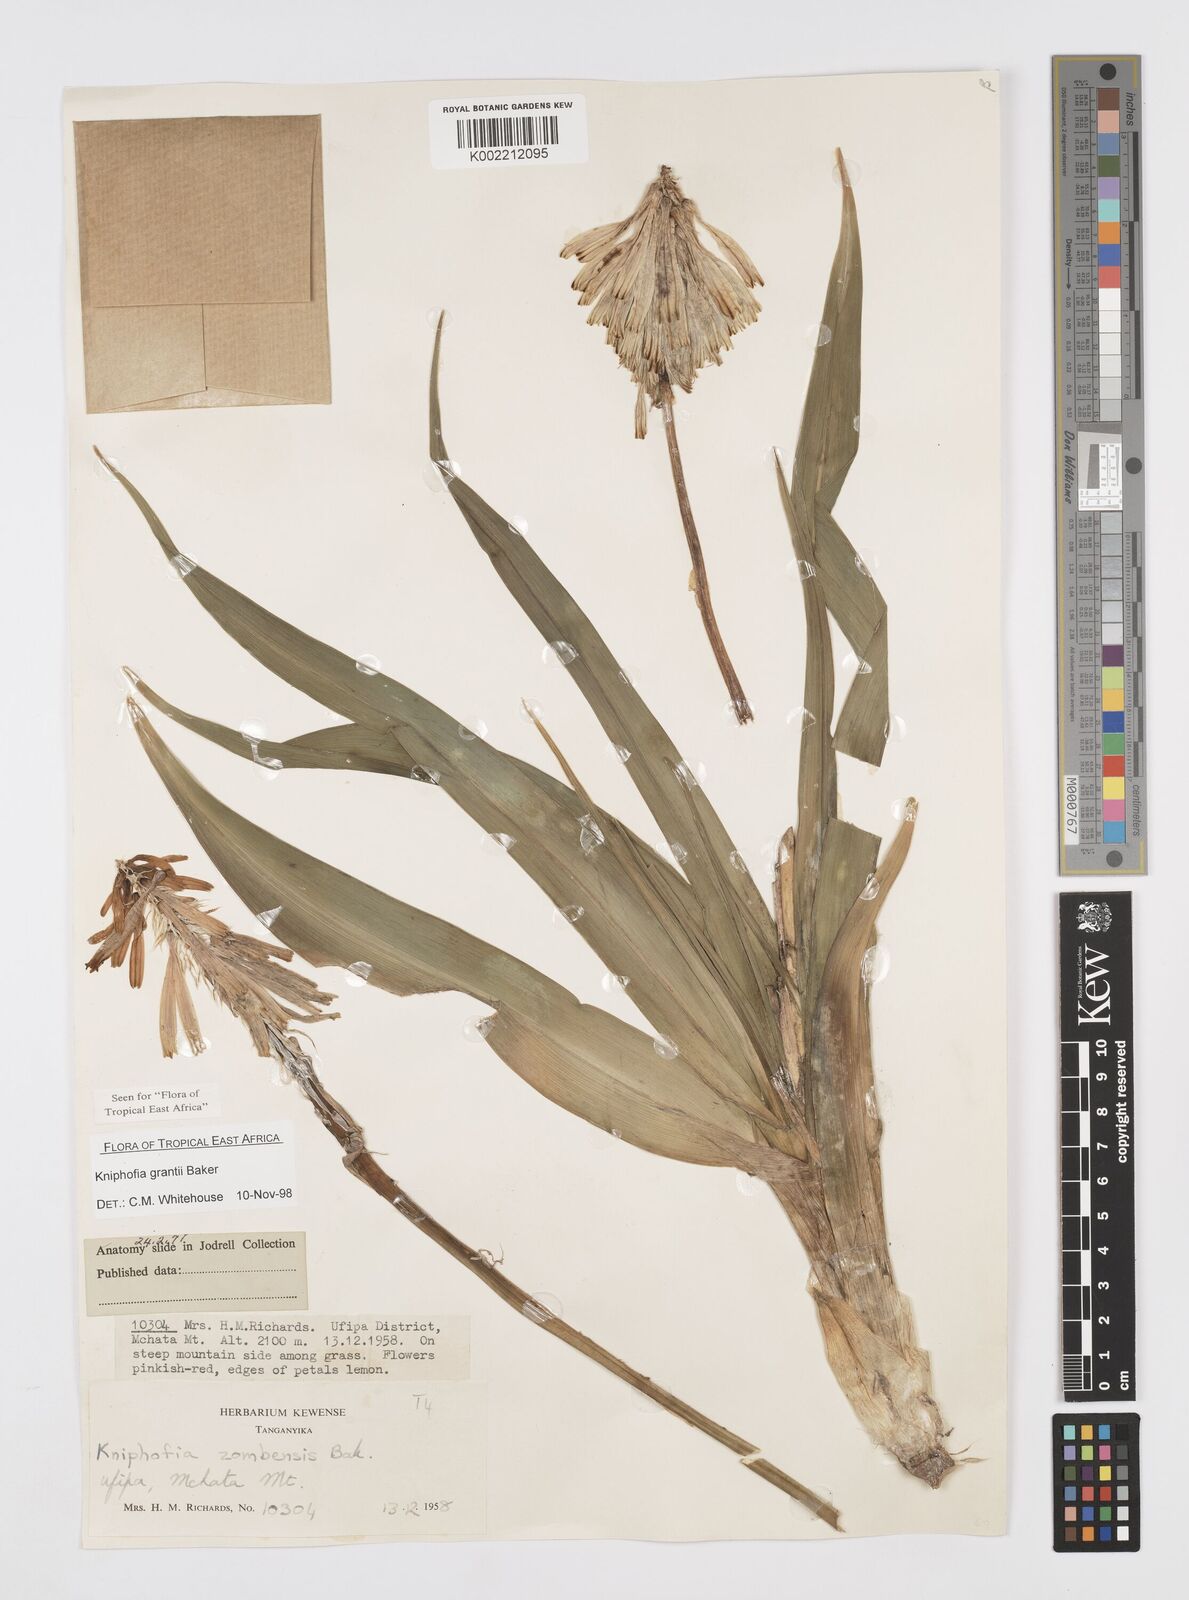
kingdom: Plantae
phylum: Tracheophyta
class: Liliopsida
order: Asparagales
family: Asphodelaceae
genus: Kniphofia
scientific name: Kniphofia grantii
